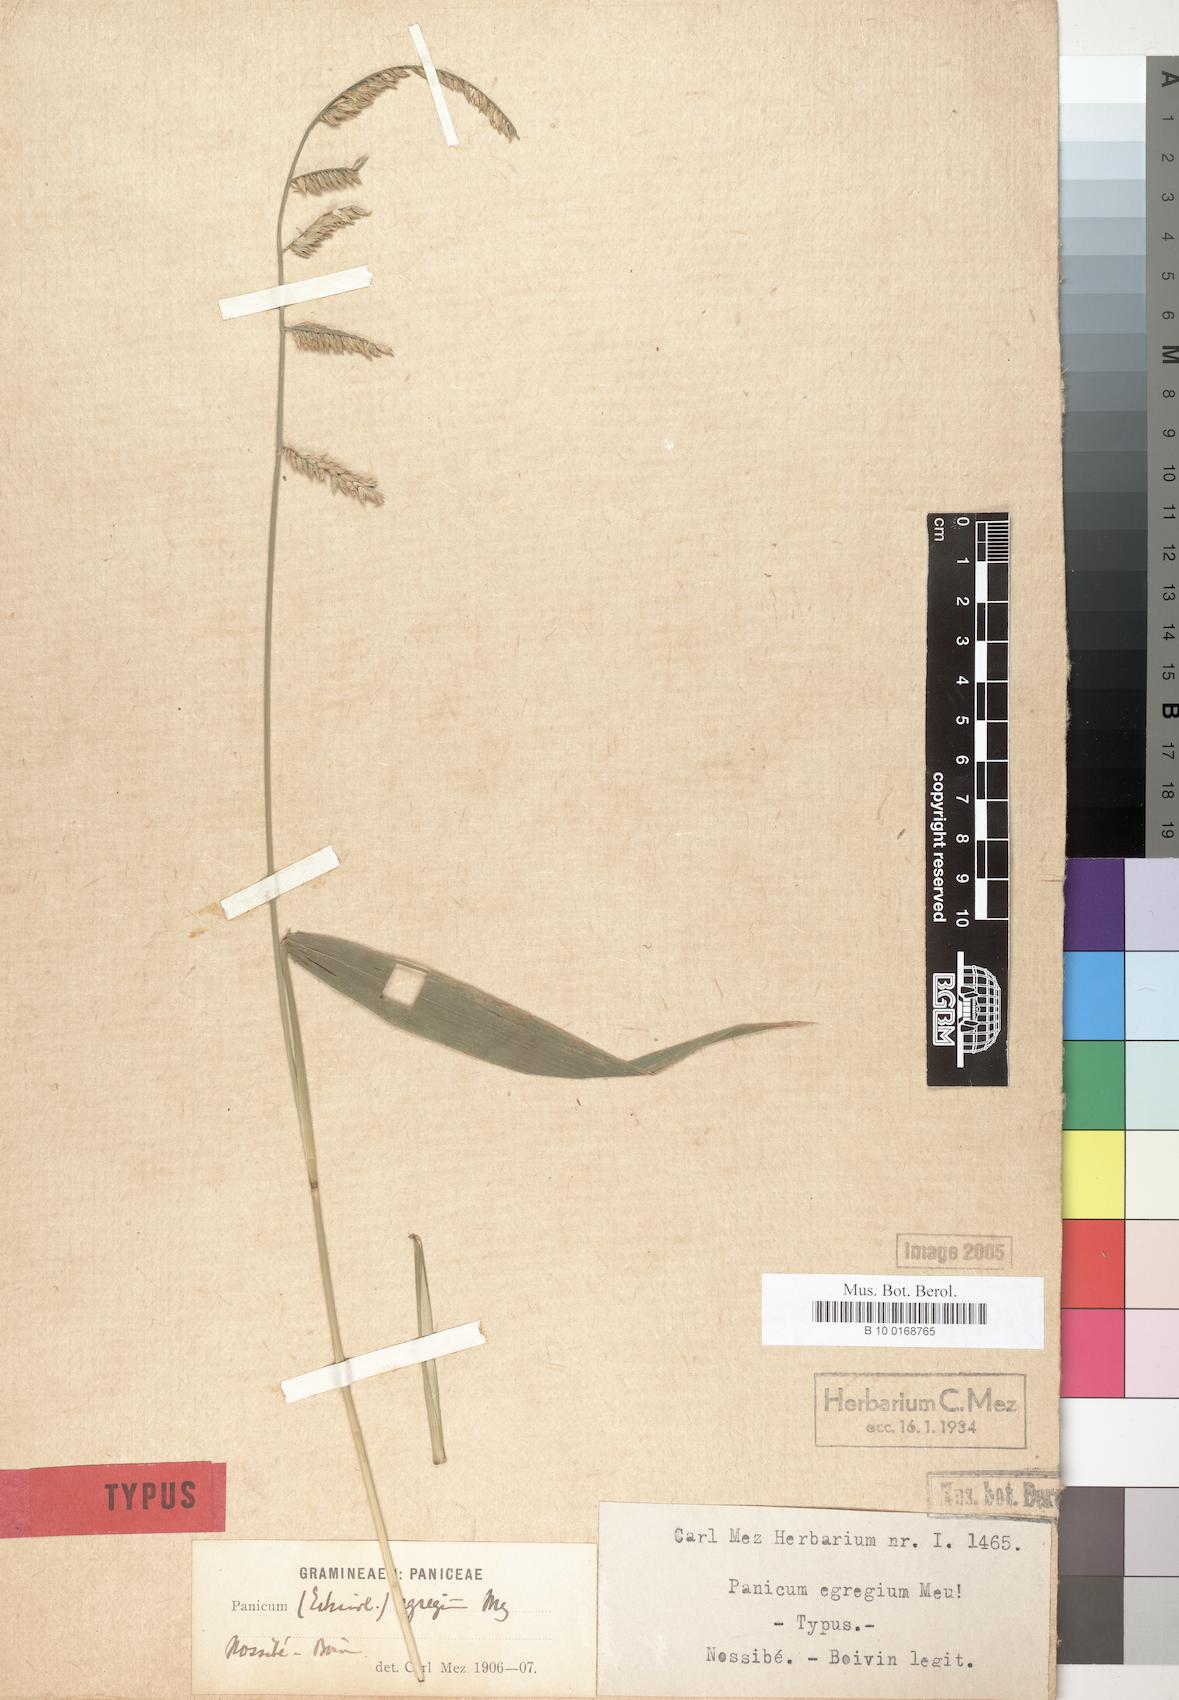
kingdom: Plantae
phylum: Tracheophyta
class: Liliopsida
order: Poales
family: Poaceae
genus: Chasechloa
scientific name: Chasechloa egregia
